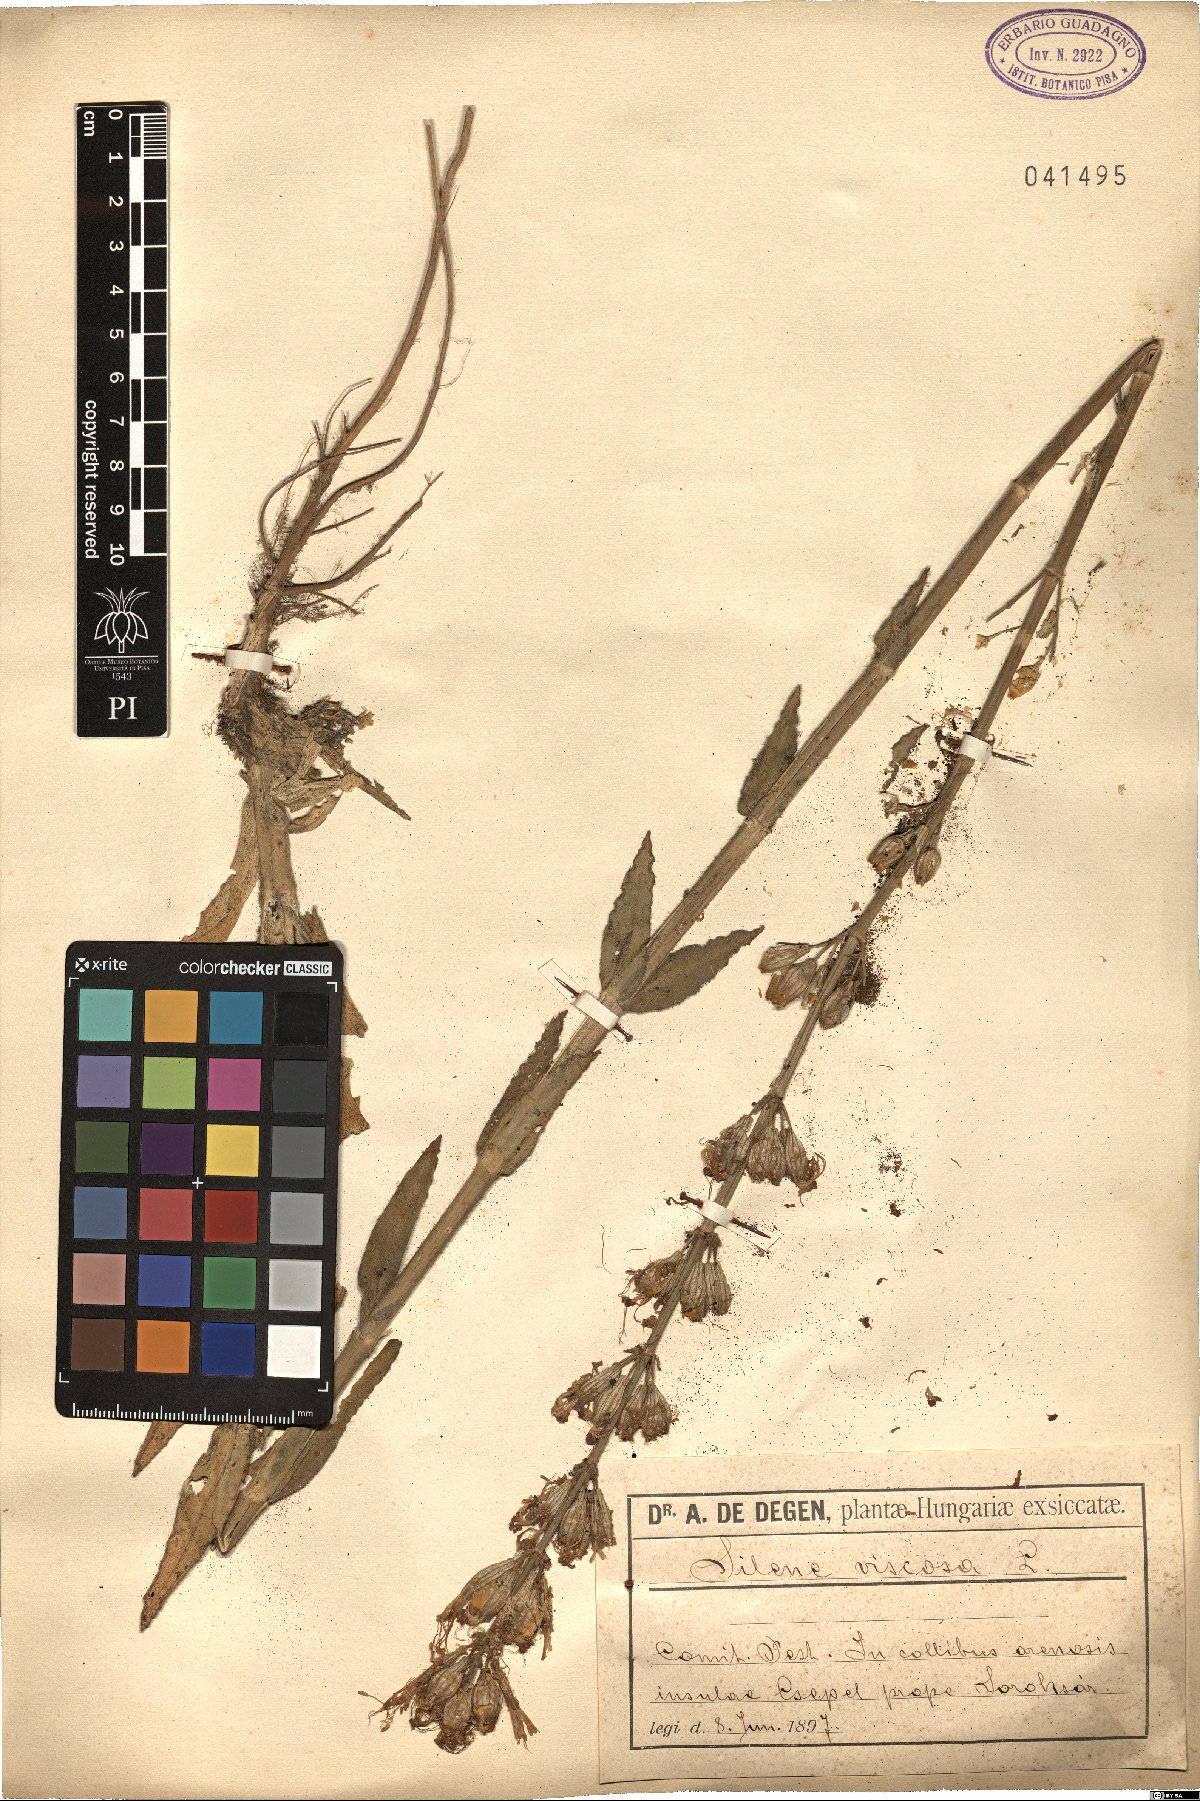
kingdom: Plantae
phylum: Tracheophyta
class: Magnoliopsida
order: Caryophyllales
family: Caryophyllaceae
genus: Silene
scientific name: Silene viscosa
